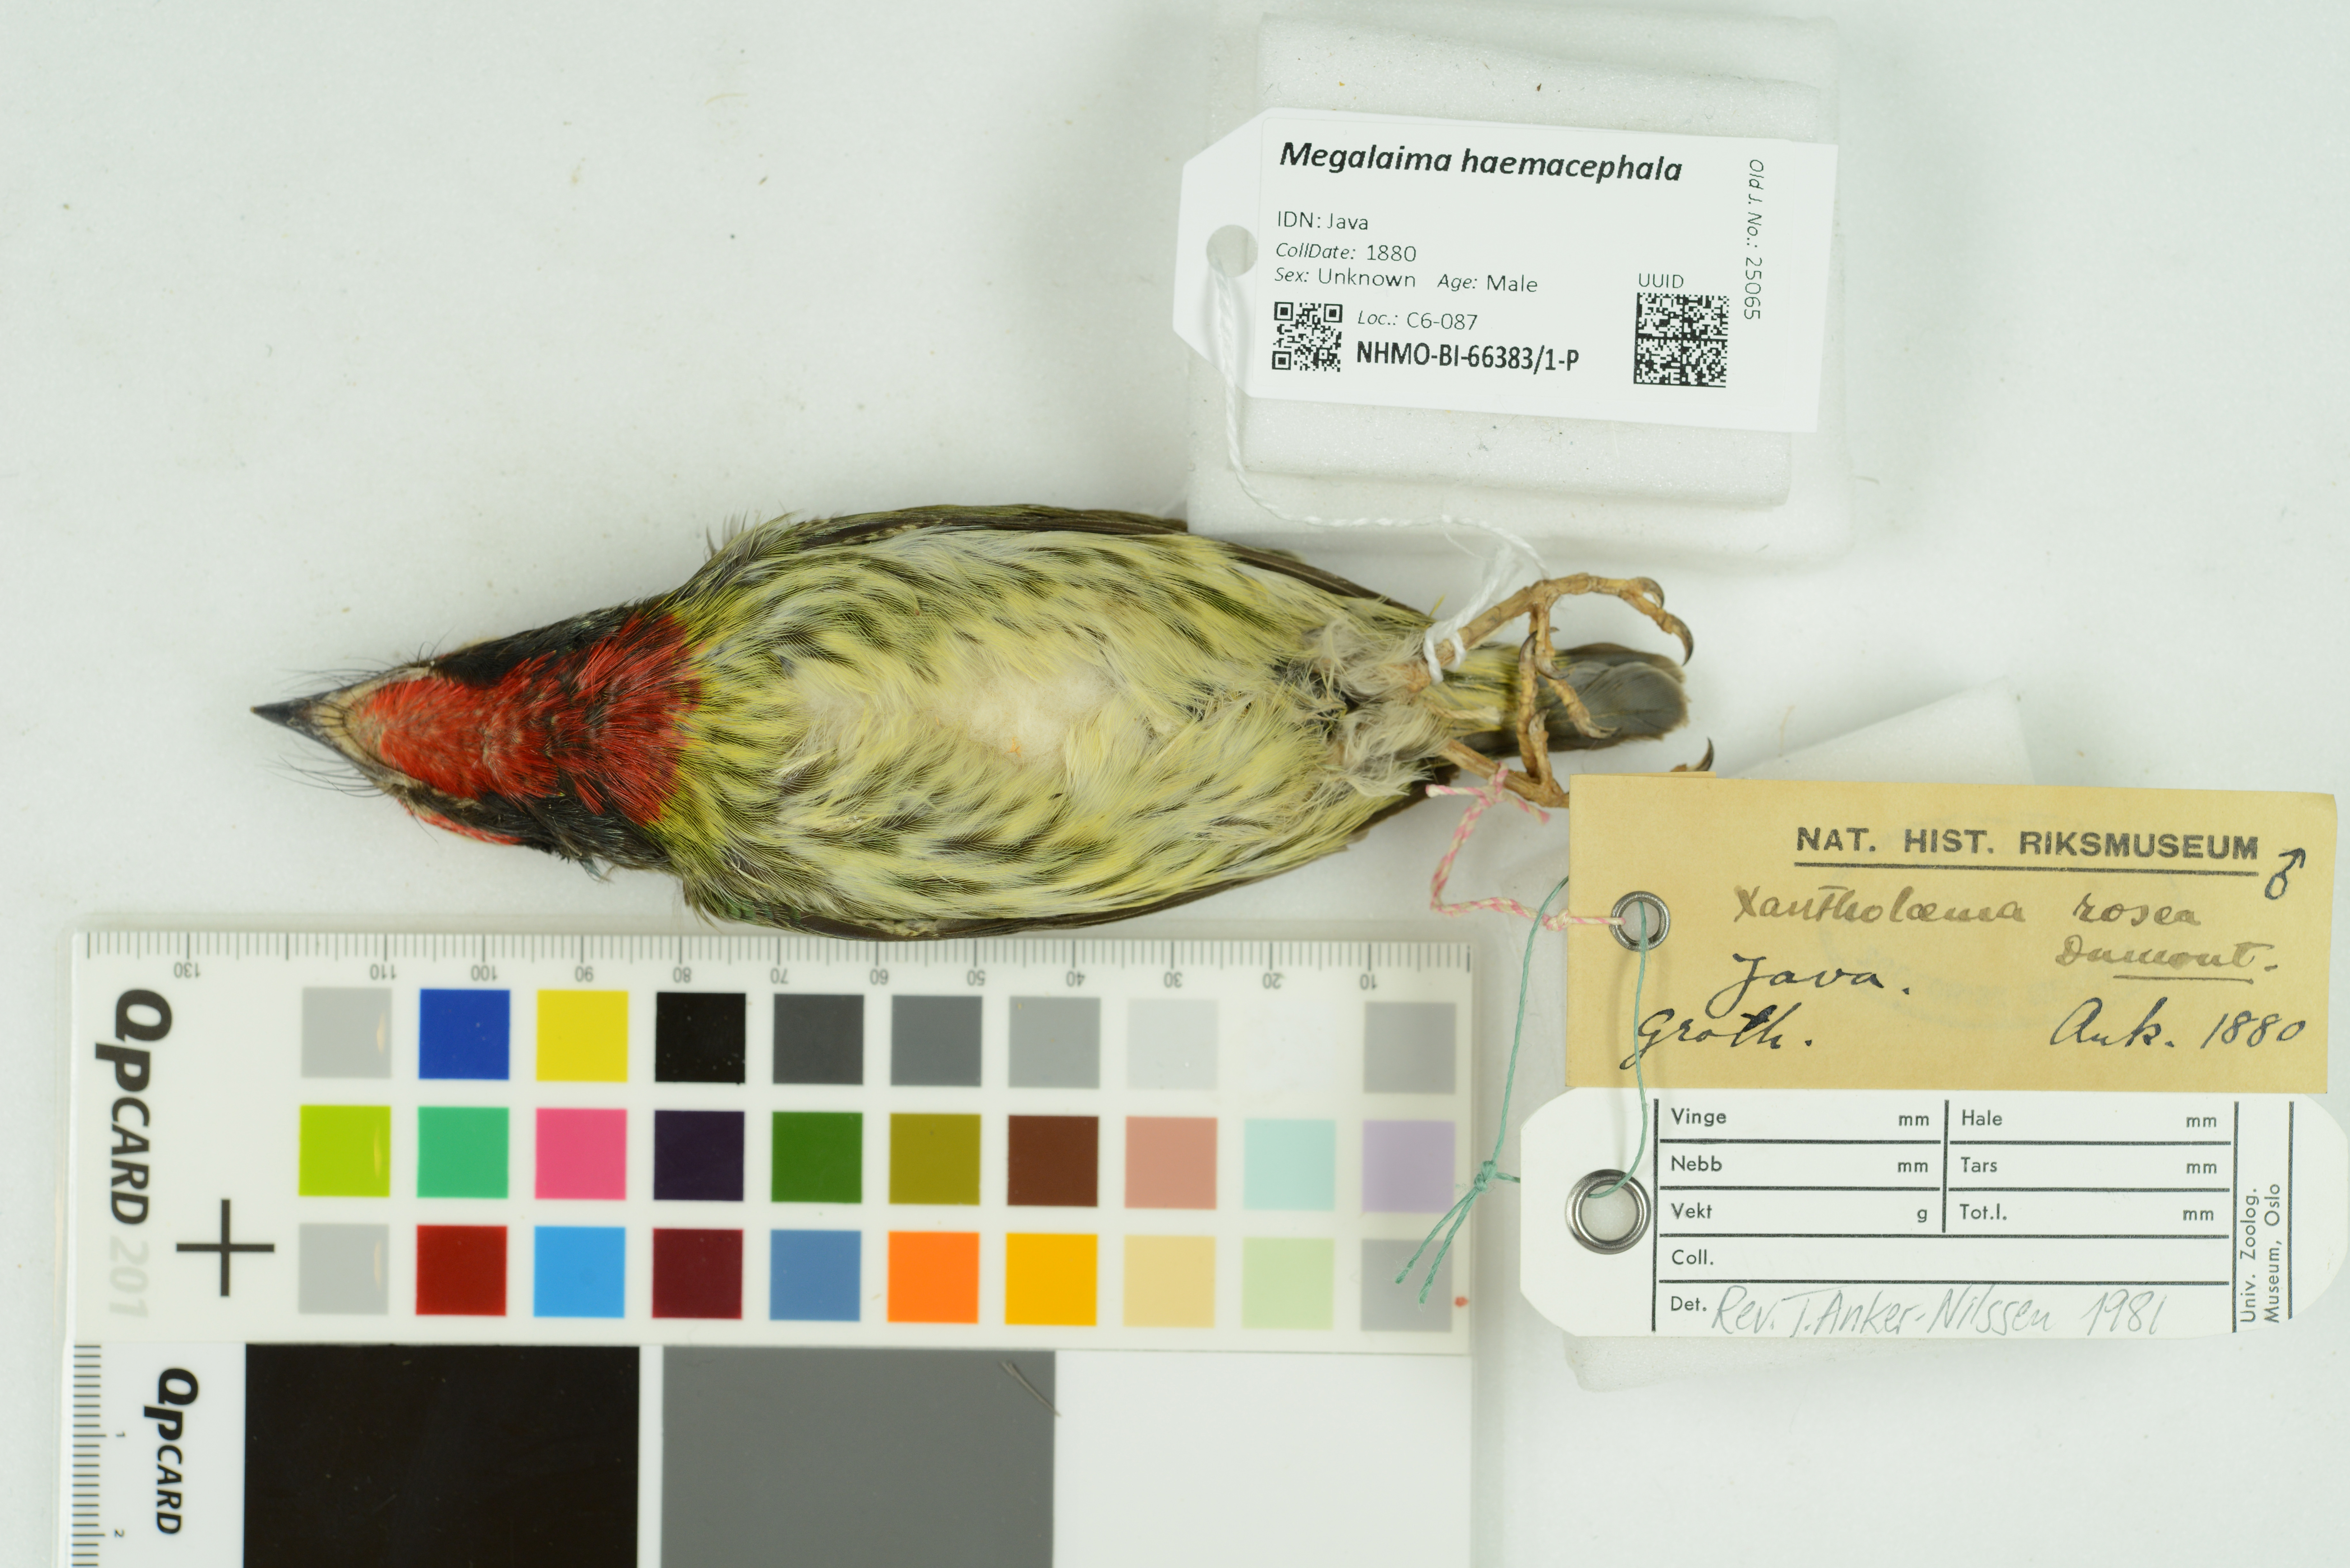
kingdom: Animalia
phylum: Chordata
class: Aves
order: Piciformes
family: Megalaimidae
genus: Psilopogon
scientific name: Psilopogon haemacephalus
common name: Coppersmith barbet
